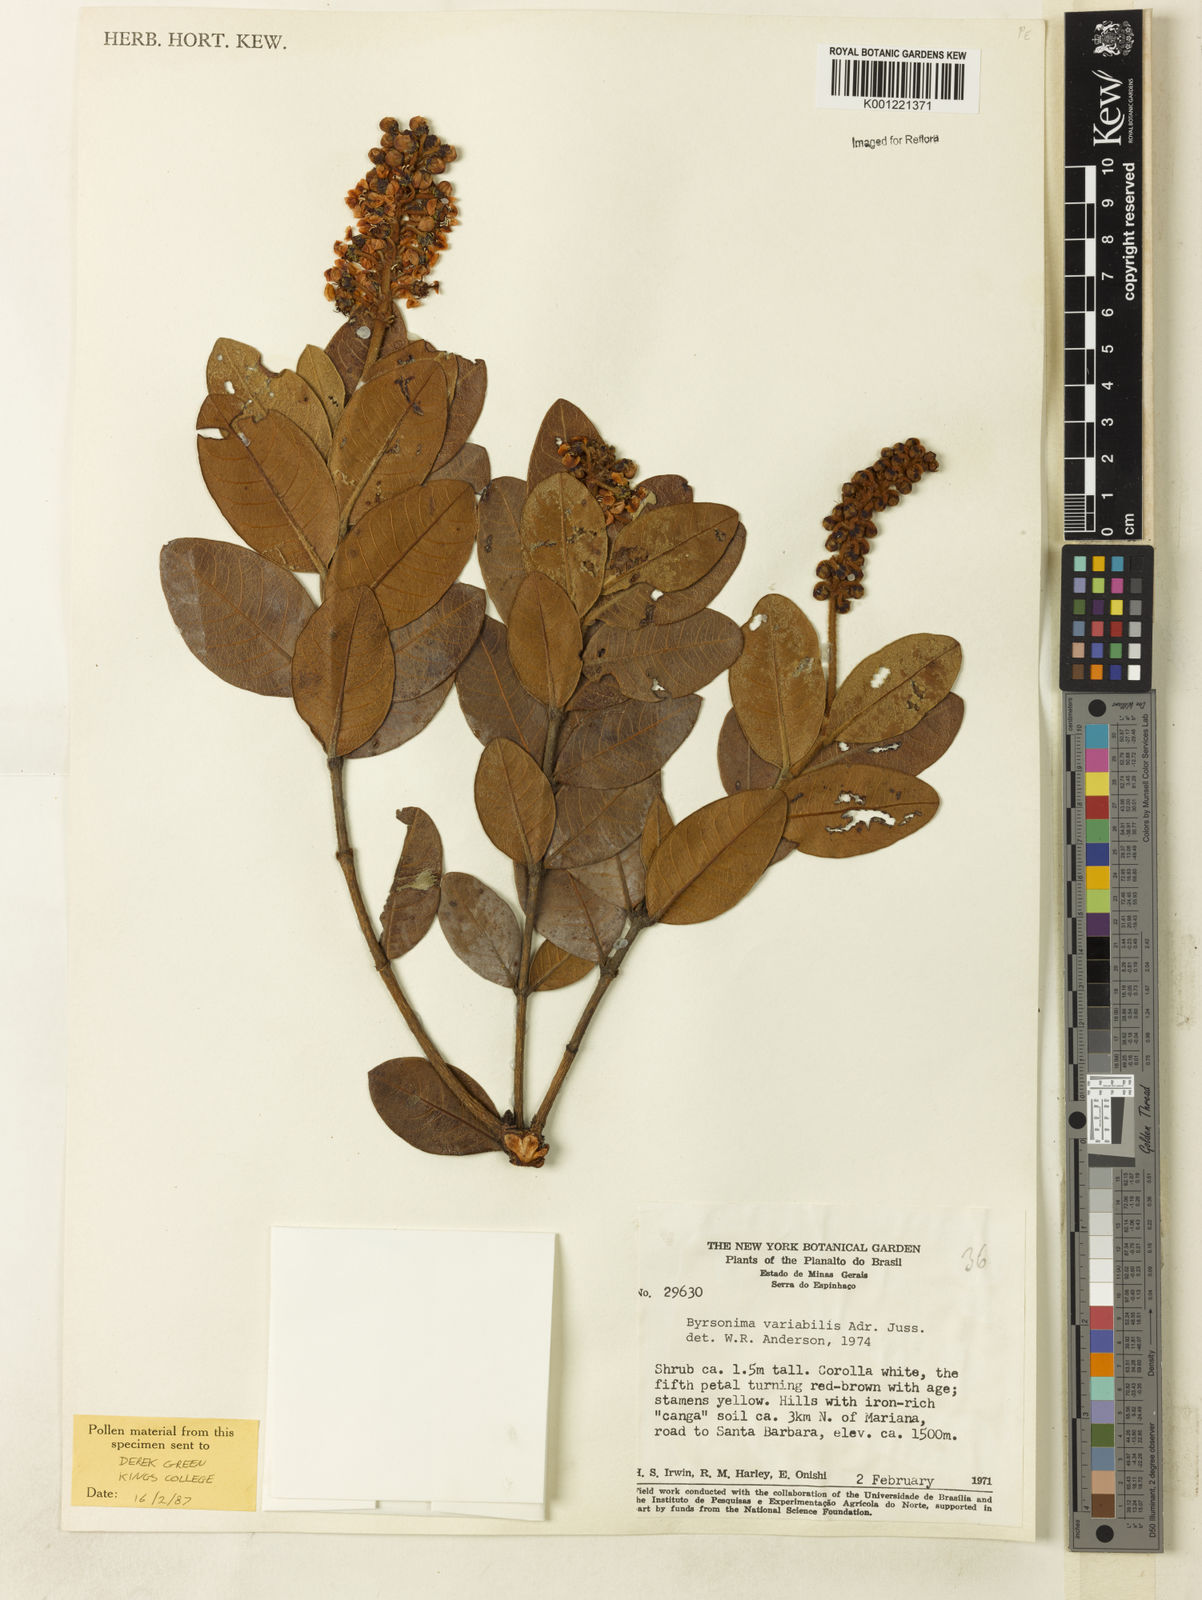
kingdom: Plantae
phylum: Tracheophyta
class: Magnoliopsida
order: Malpighiales
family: Malpighiaceae
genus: Byrsonima
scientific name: Byrsonima variabilis
